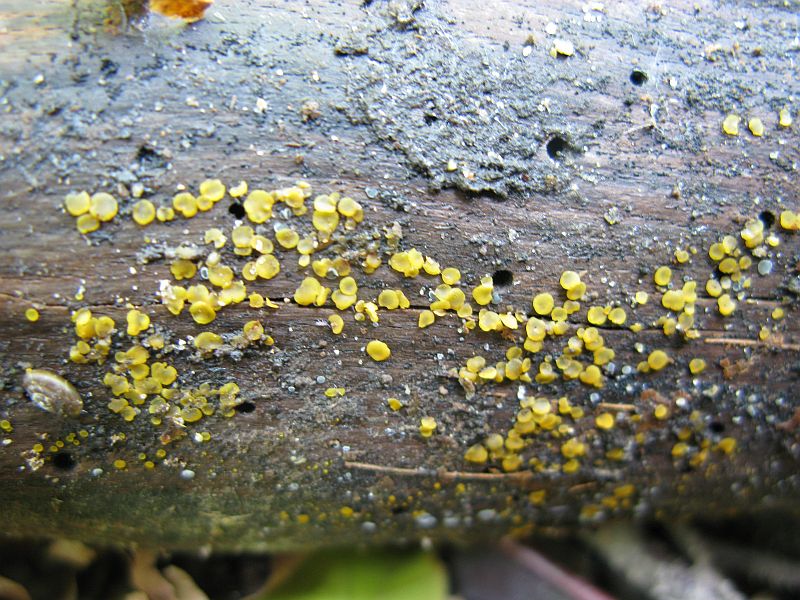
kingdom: Fungi
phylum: Ascomycota
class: Orbiliomycetes
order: Orbiliales
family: Orbiliaceae
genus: Orbilia
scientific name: Orbilia xanthostigma
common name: krumsporet voksskive
